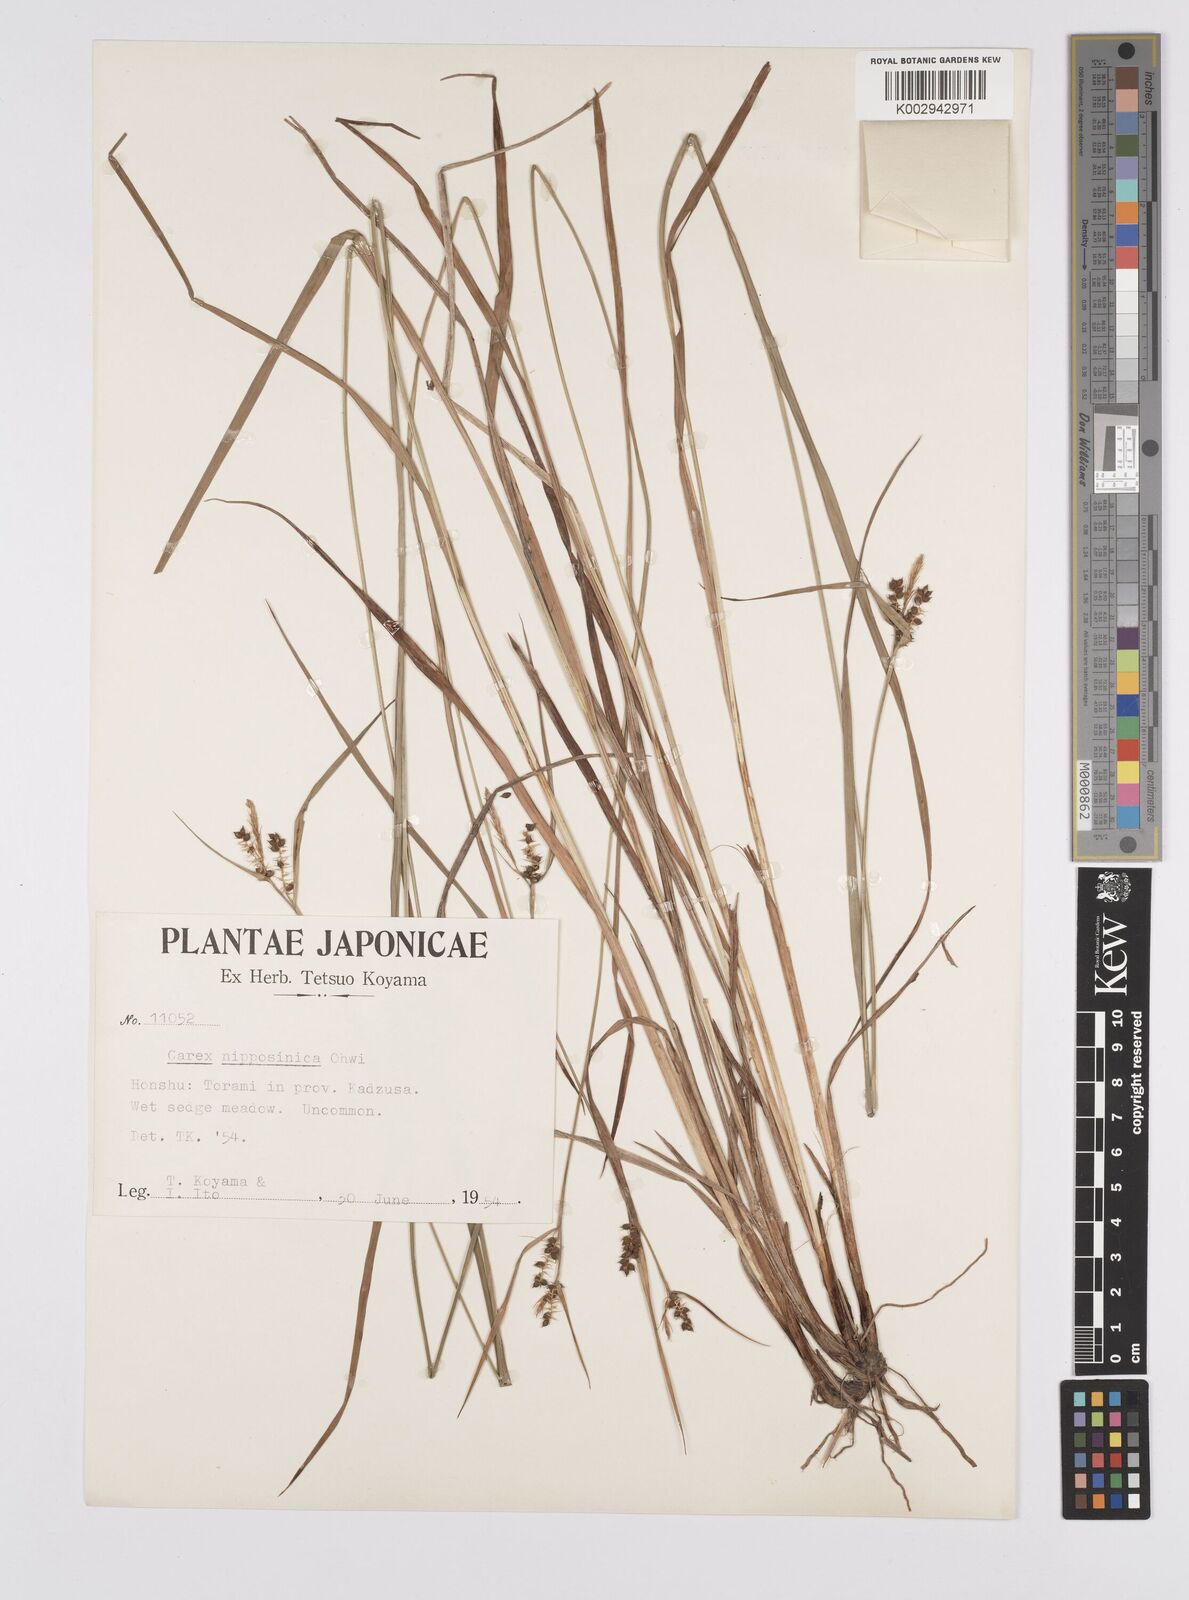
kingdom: Plantae
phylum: Tracheophyta
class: Liliopsida
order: Poales
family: Cyperaceae
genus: Carex
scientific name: Carex brownii
